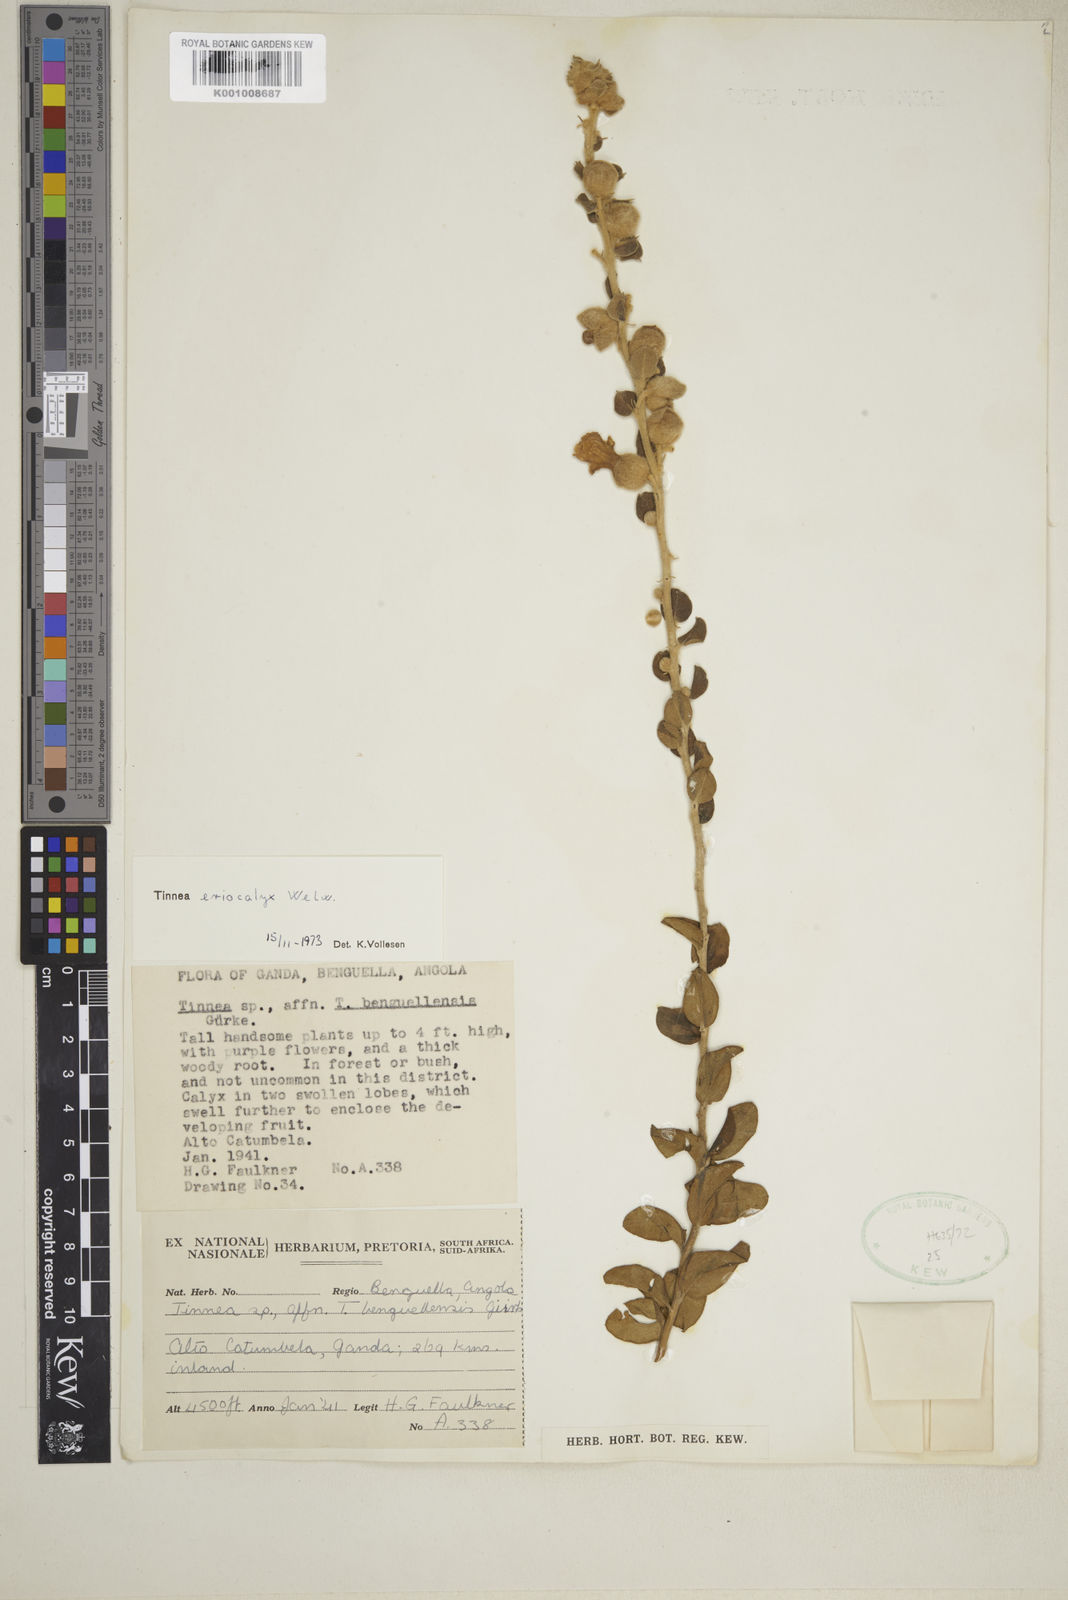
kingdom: Plantae
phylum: Tracheophyta
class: Magnoliopsida
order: Lamiales
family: Lamiaceae
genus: Tinnea
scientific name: Tinnea eriocalyx
